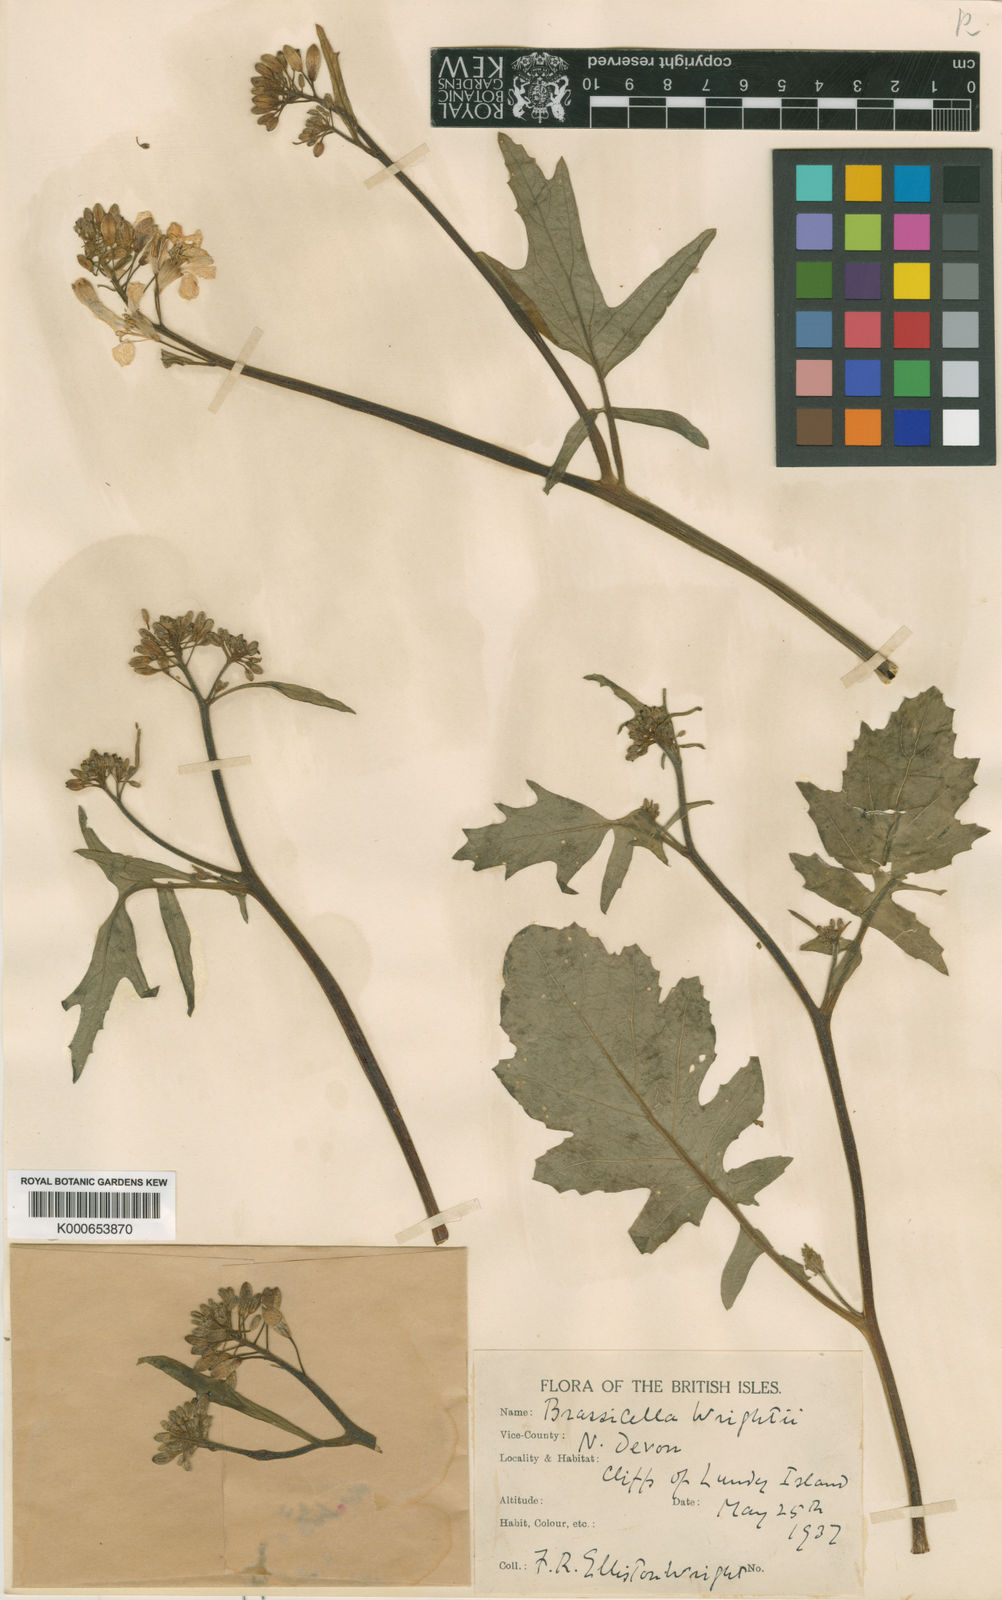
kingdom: Plantae
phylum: Tracheophyta
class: Magnoliopsida
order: Brassicales
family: Brassicaceae
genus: Coincya
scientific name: Coincya wrightii
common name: Lundy cabbage
